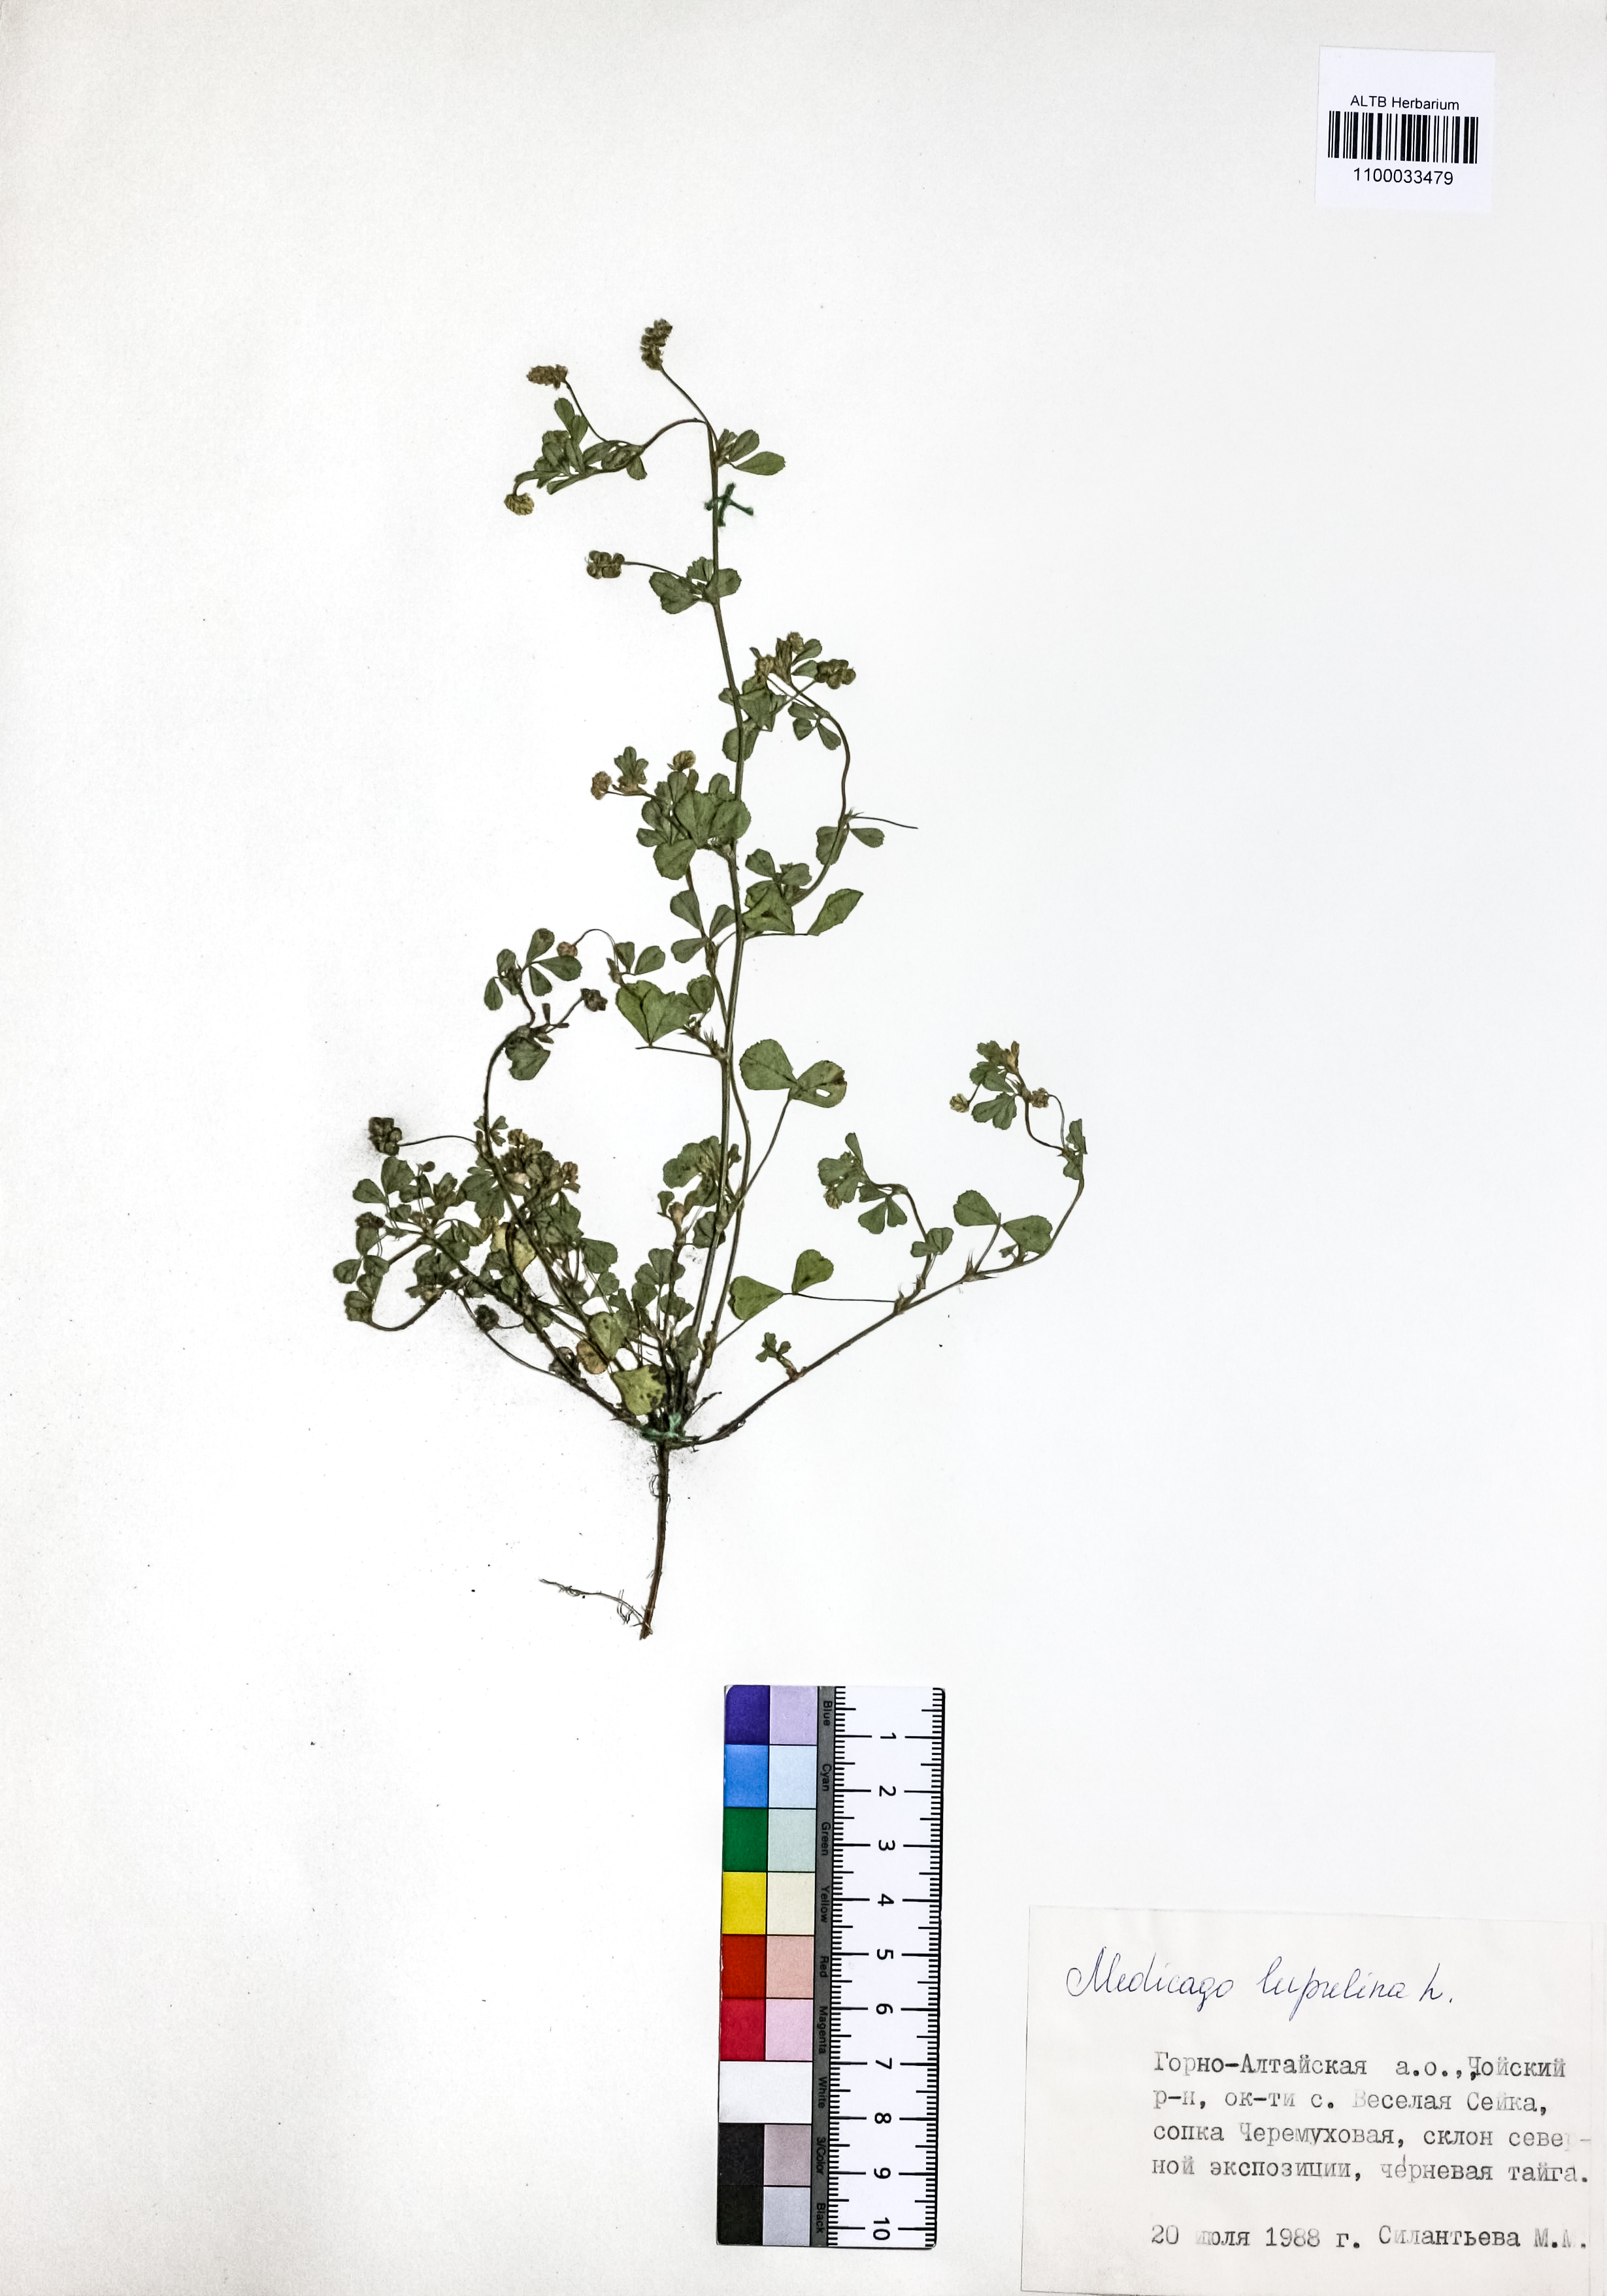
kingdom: Plantae
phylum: Tracheophyta
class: Magnoliopsida
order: Fabales
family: Fabaceae
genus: Medicago
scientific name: Medicago lupulina
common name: Black medick
